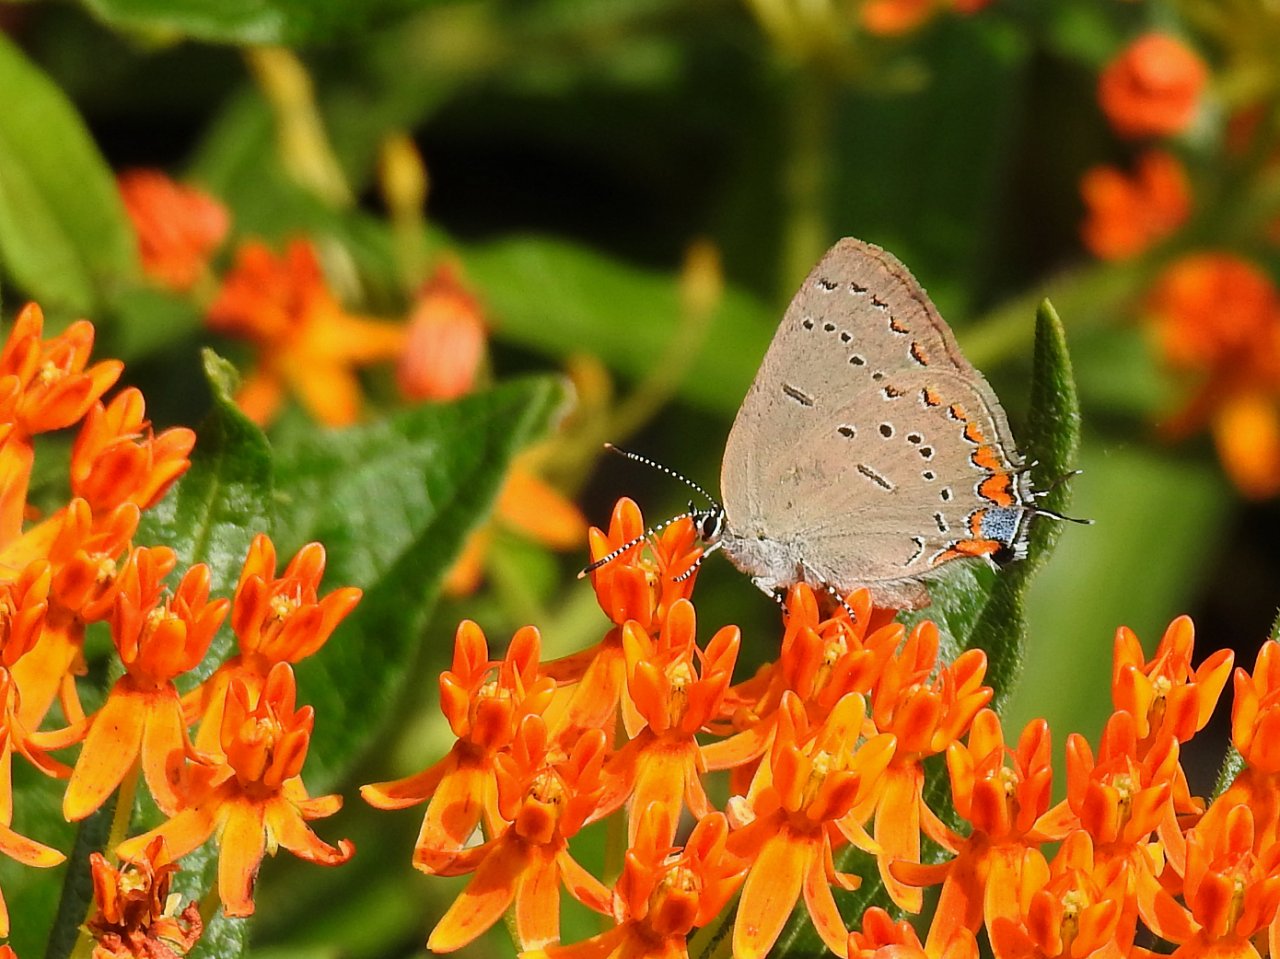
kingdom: Animalia
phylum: Arthropoda
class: Insecta
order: Lepidoptera
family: Lycaenidae
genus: Strymon
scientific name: Strymon acadica
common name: Acadian Hairstreak
